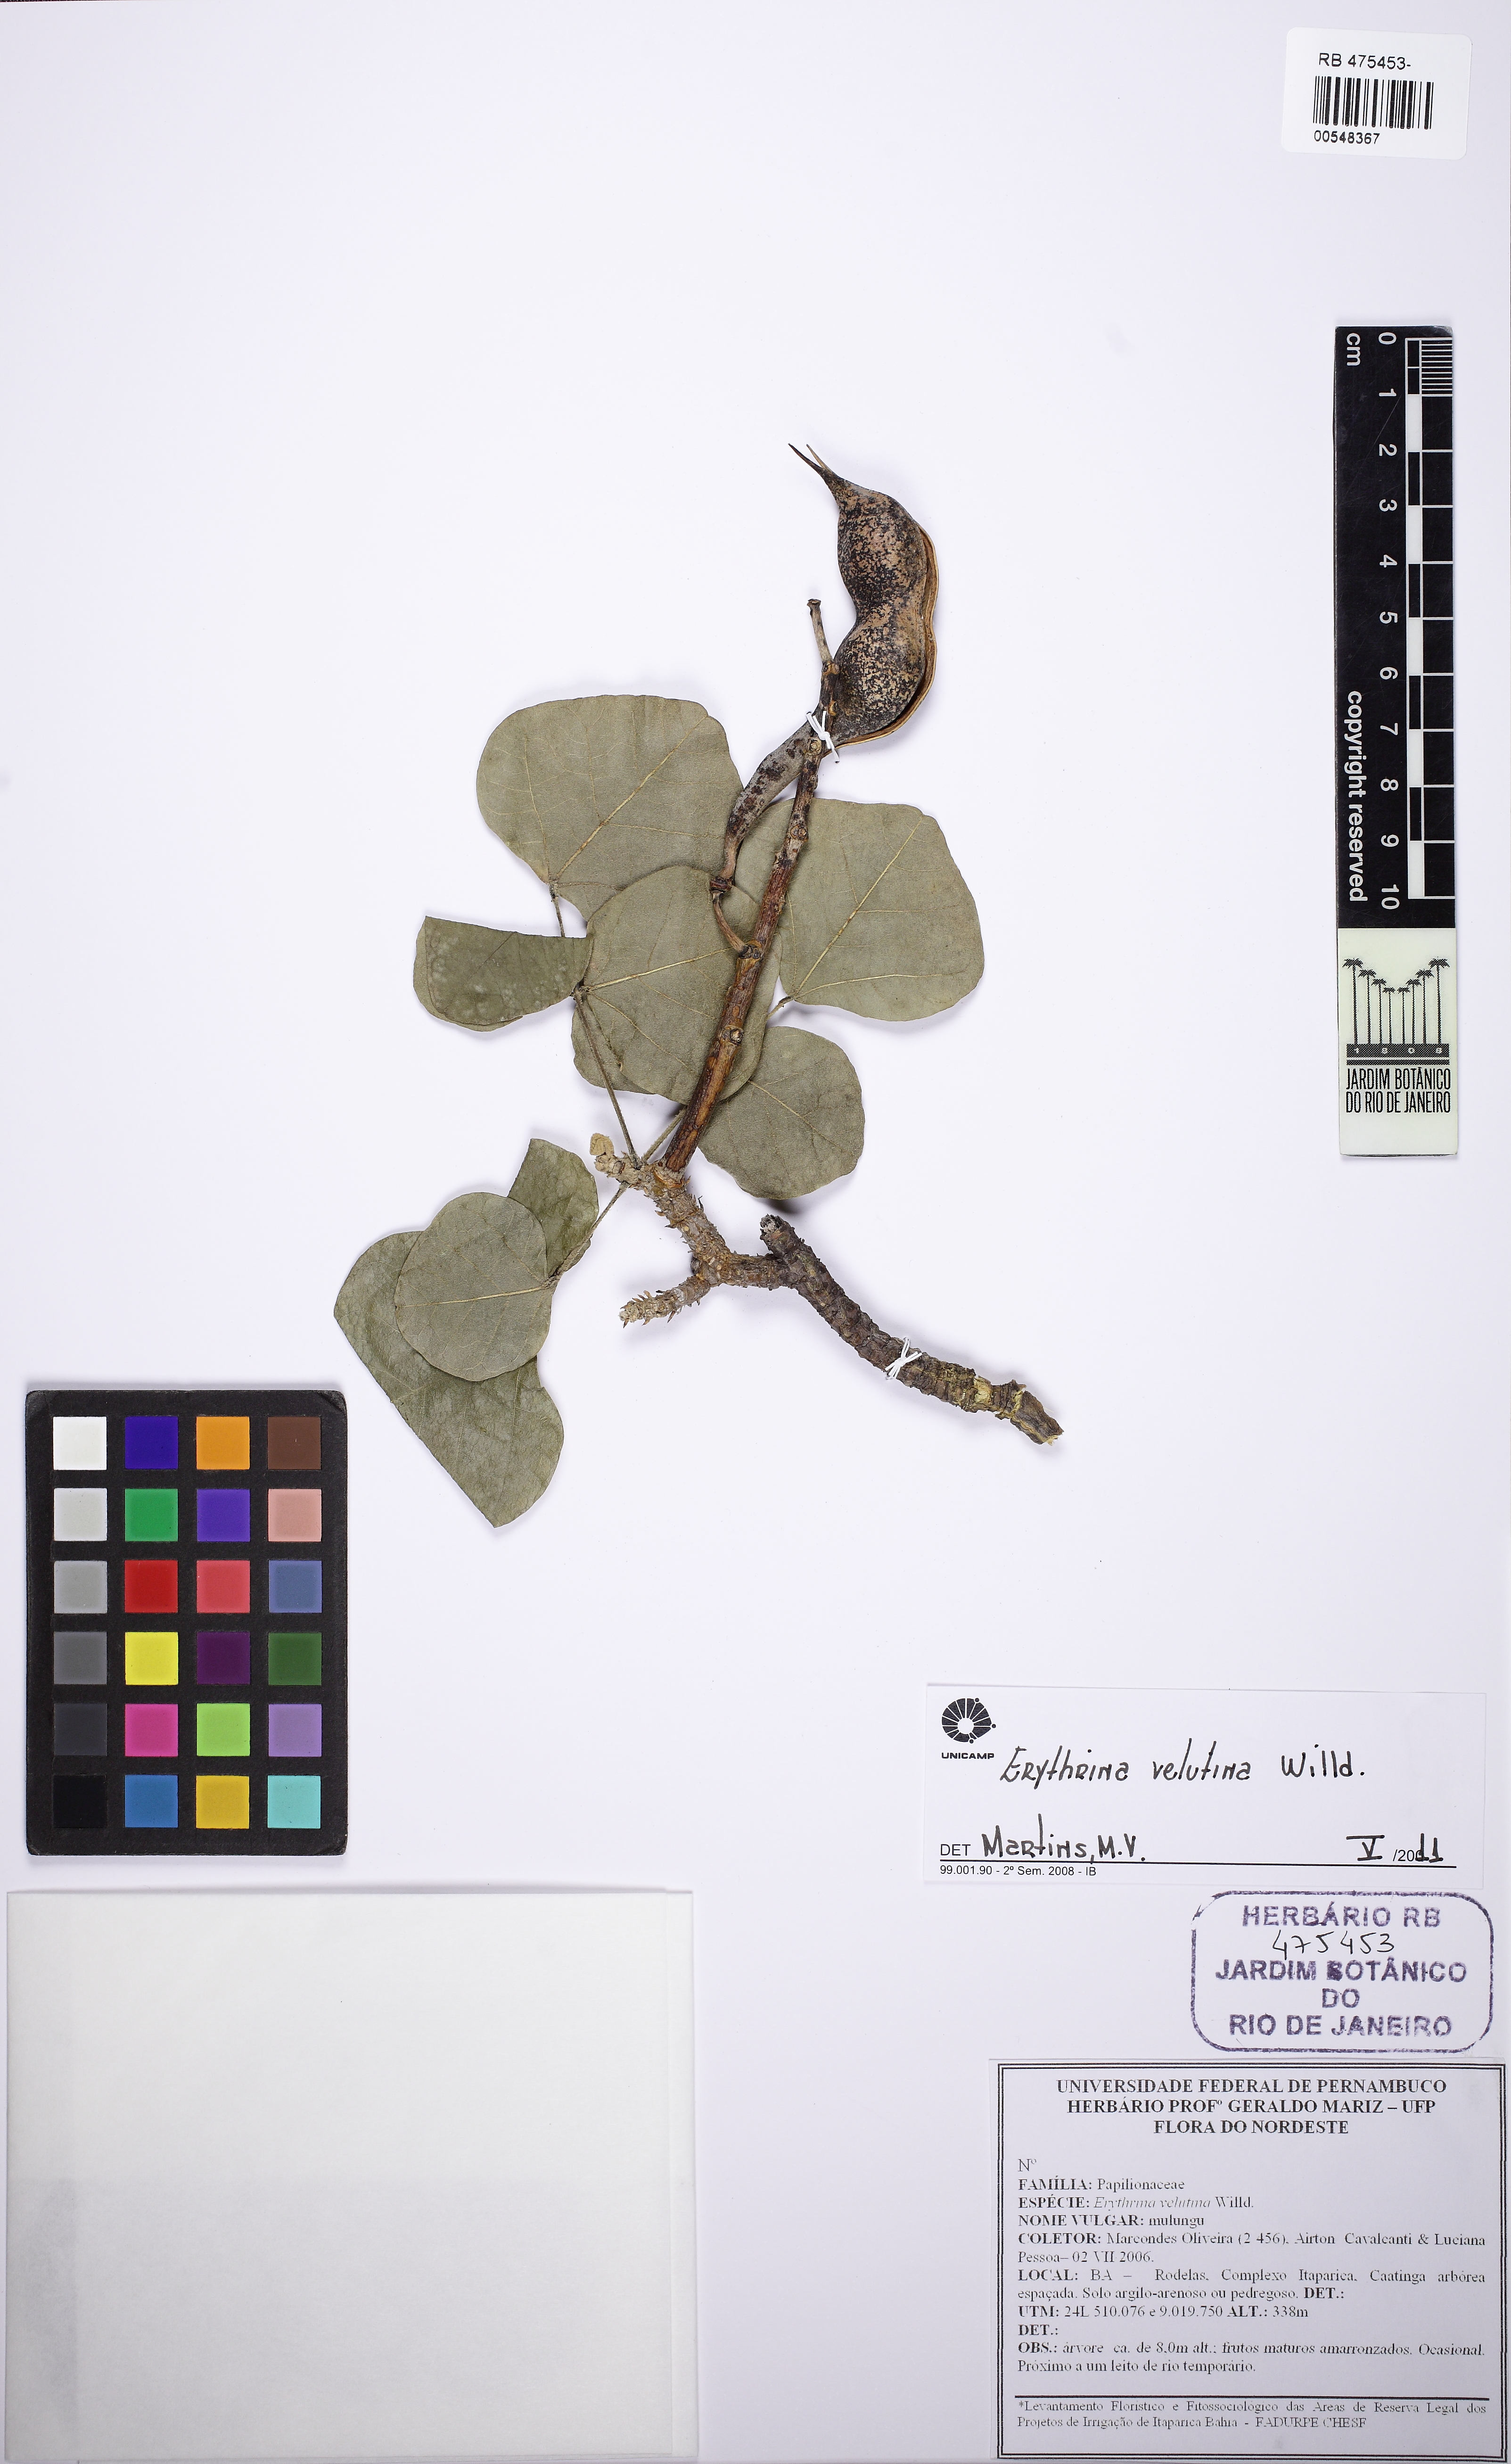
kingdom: Plantae
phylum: Tracheophyta
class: Magnoliopsida
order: Fabales
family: Fabaceae
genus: Erythrina
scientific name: Erythrina velutina
